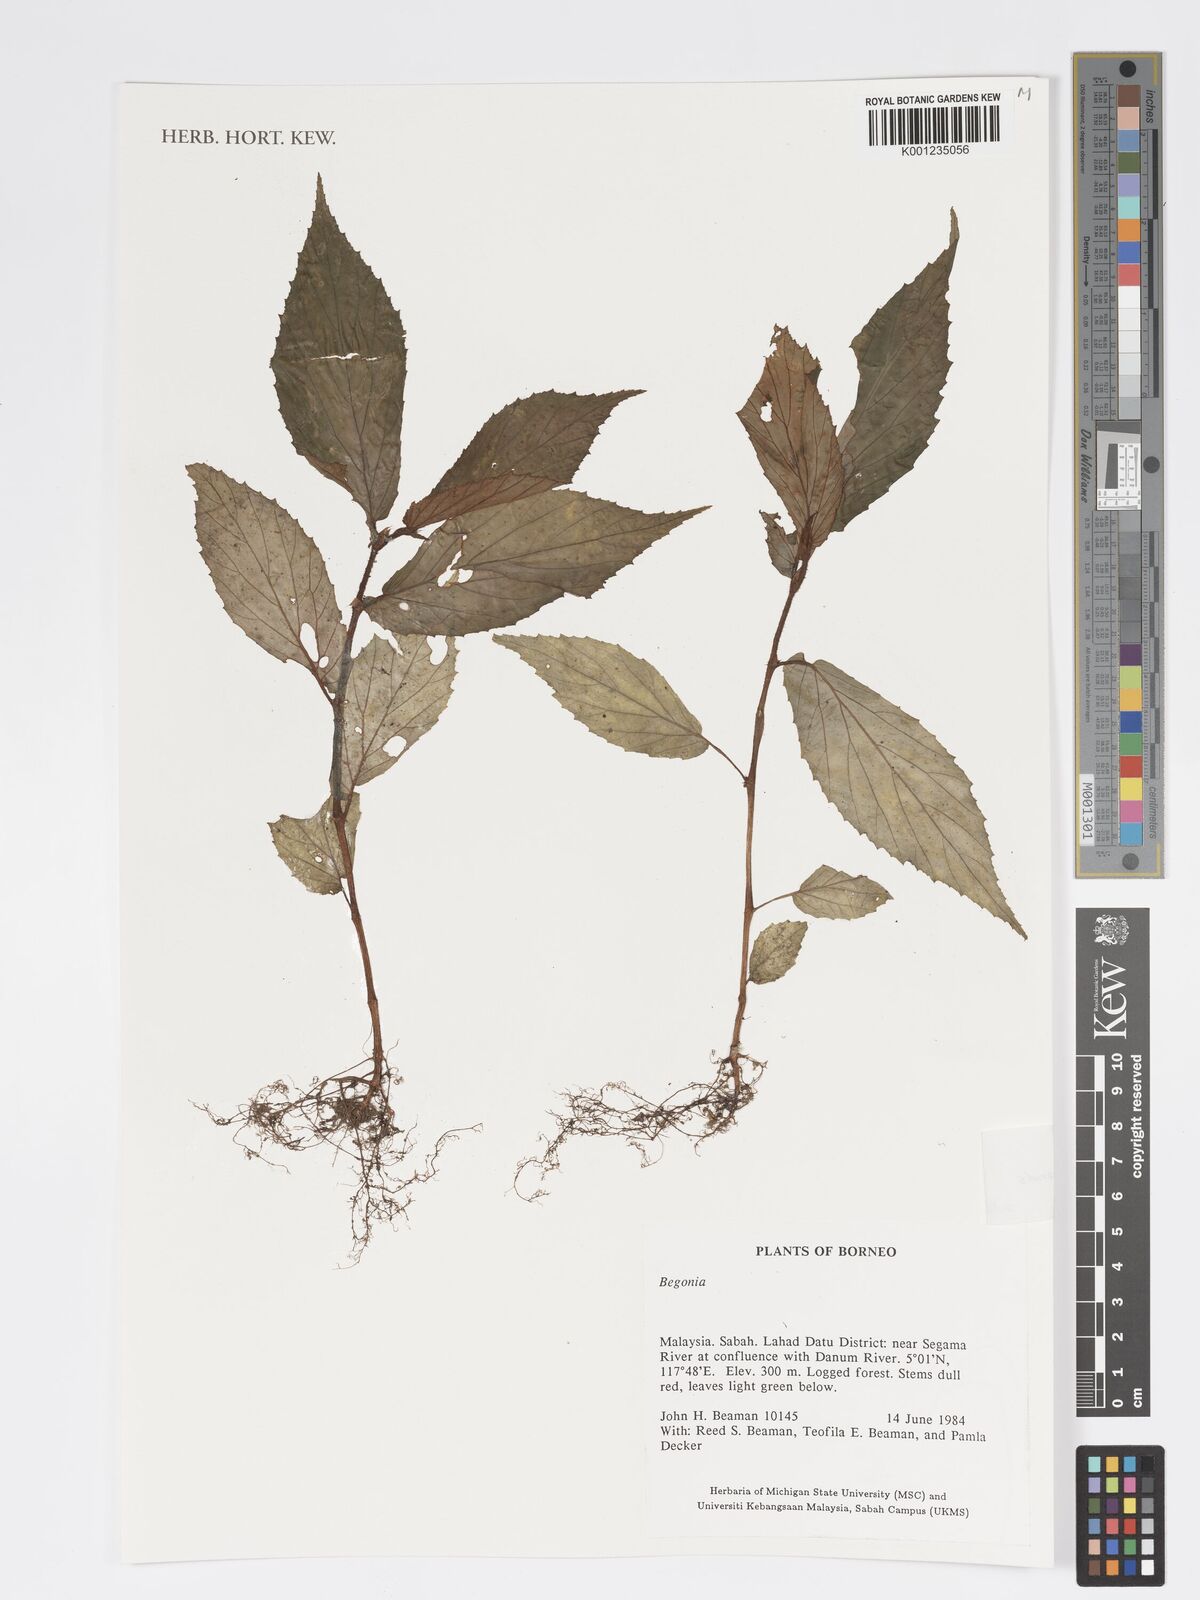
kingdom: Plantae
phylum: Tracheophyta
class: Magnoliopsida
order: Cucurbitales
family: Begoniaceae
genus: Begonia
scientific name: Begonia fuscisetosa
